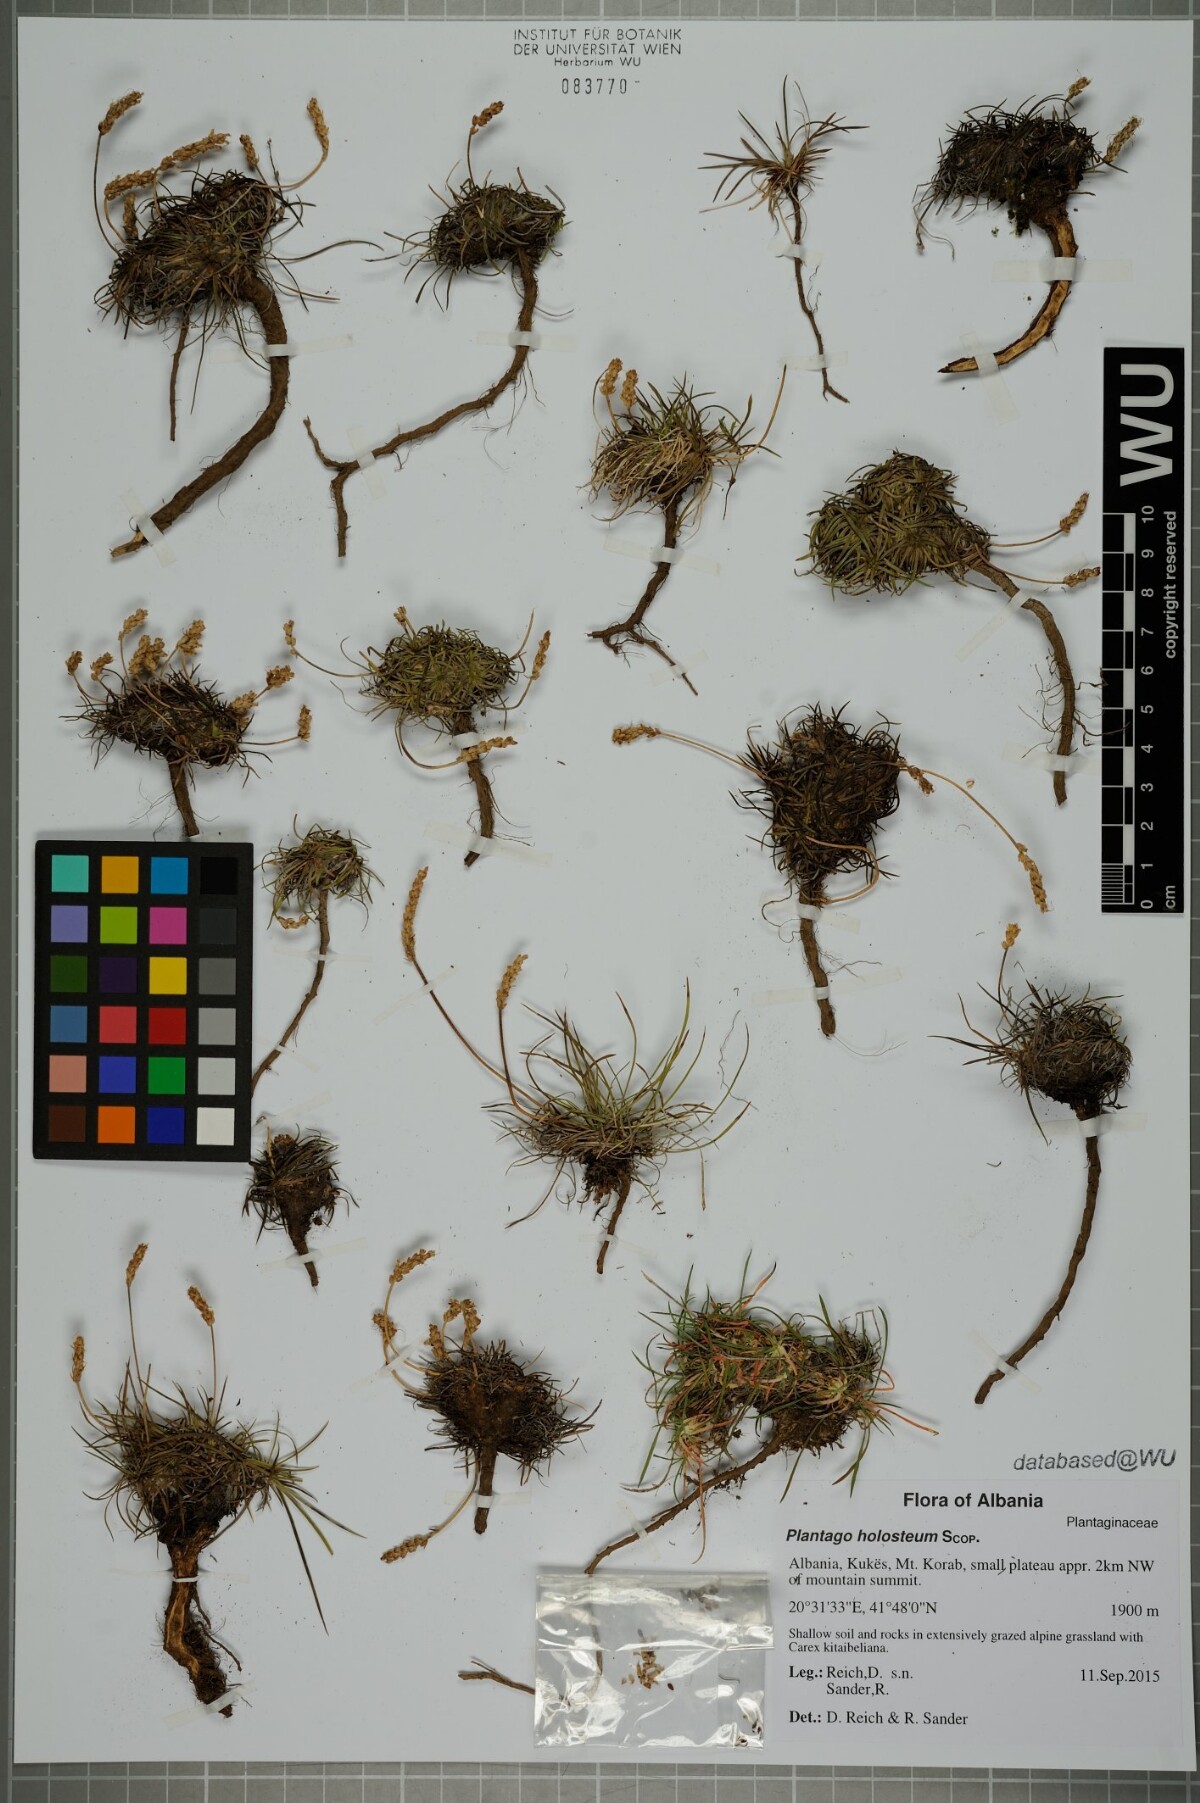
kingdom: Plantae
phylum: Tracheophyta
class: Magnoliopsida
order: Lamiales
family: Plantaginaceae
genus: Plantago
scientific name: Plantago subulata
